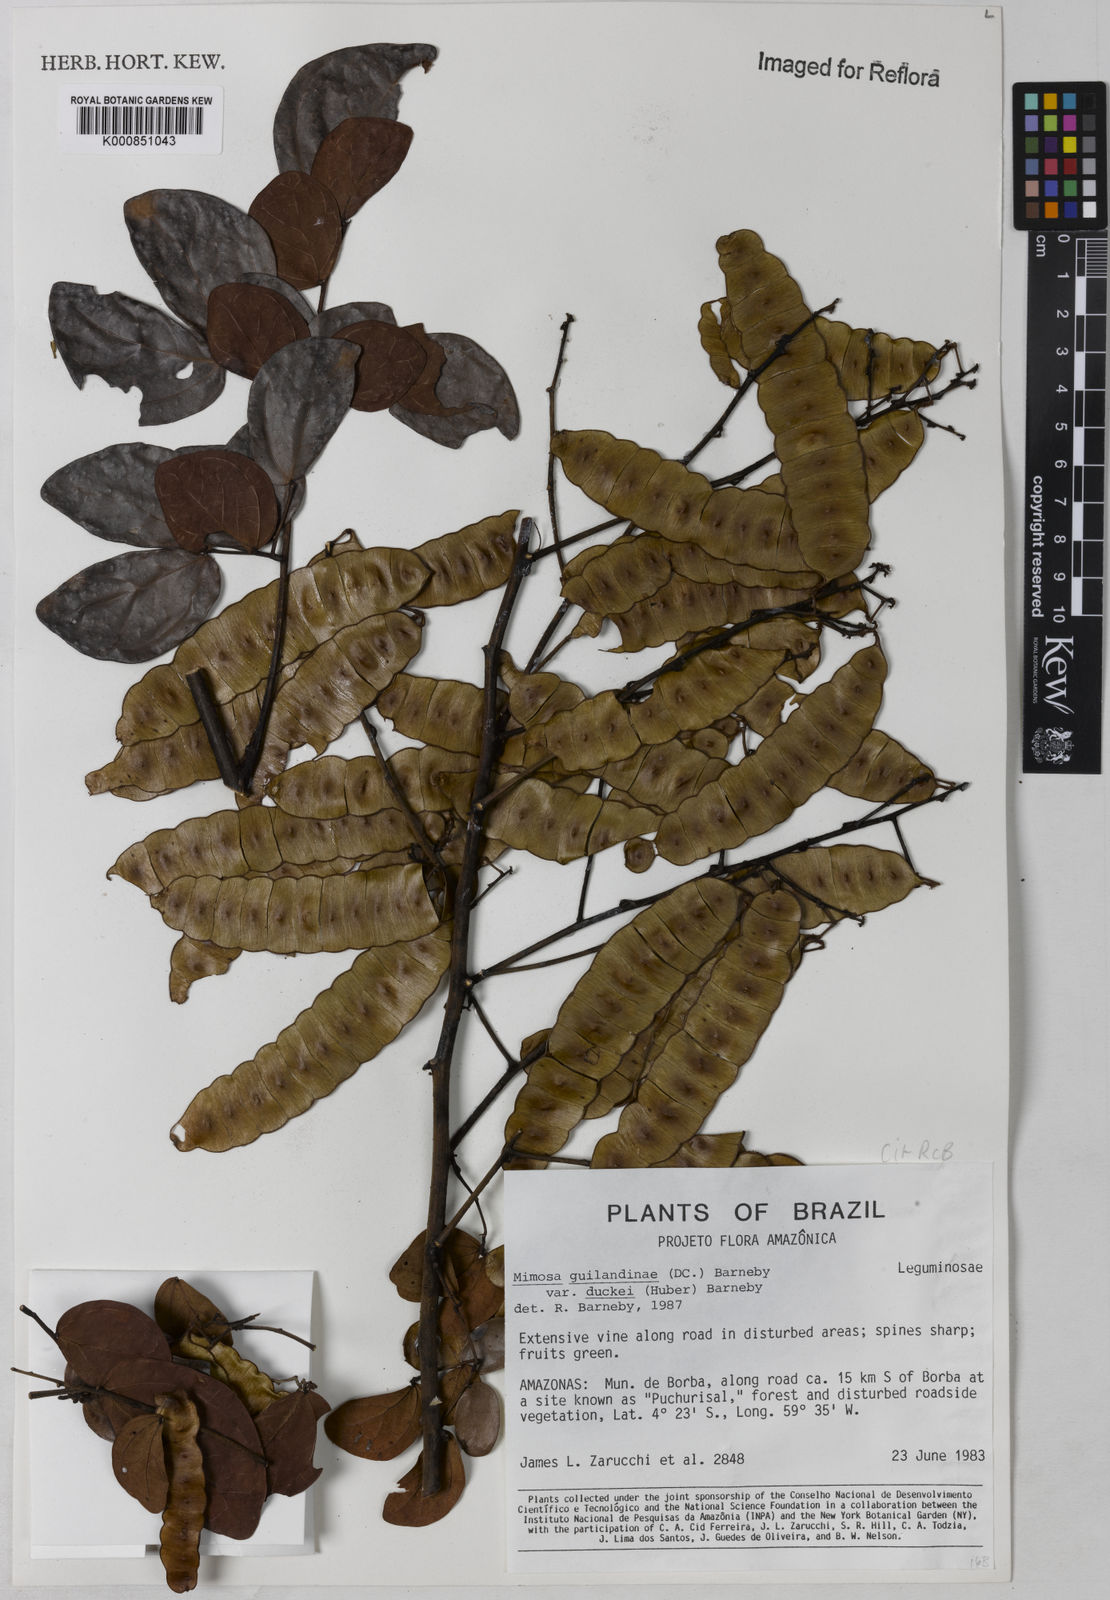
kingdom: Plantae
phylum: Tracheophyta
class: Magnoliopsida
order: Fabales
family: Fabaceae
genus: Mimosa
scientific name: Mimosa guilandinae
